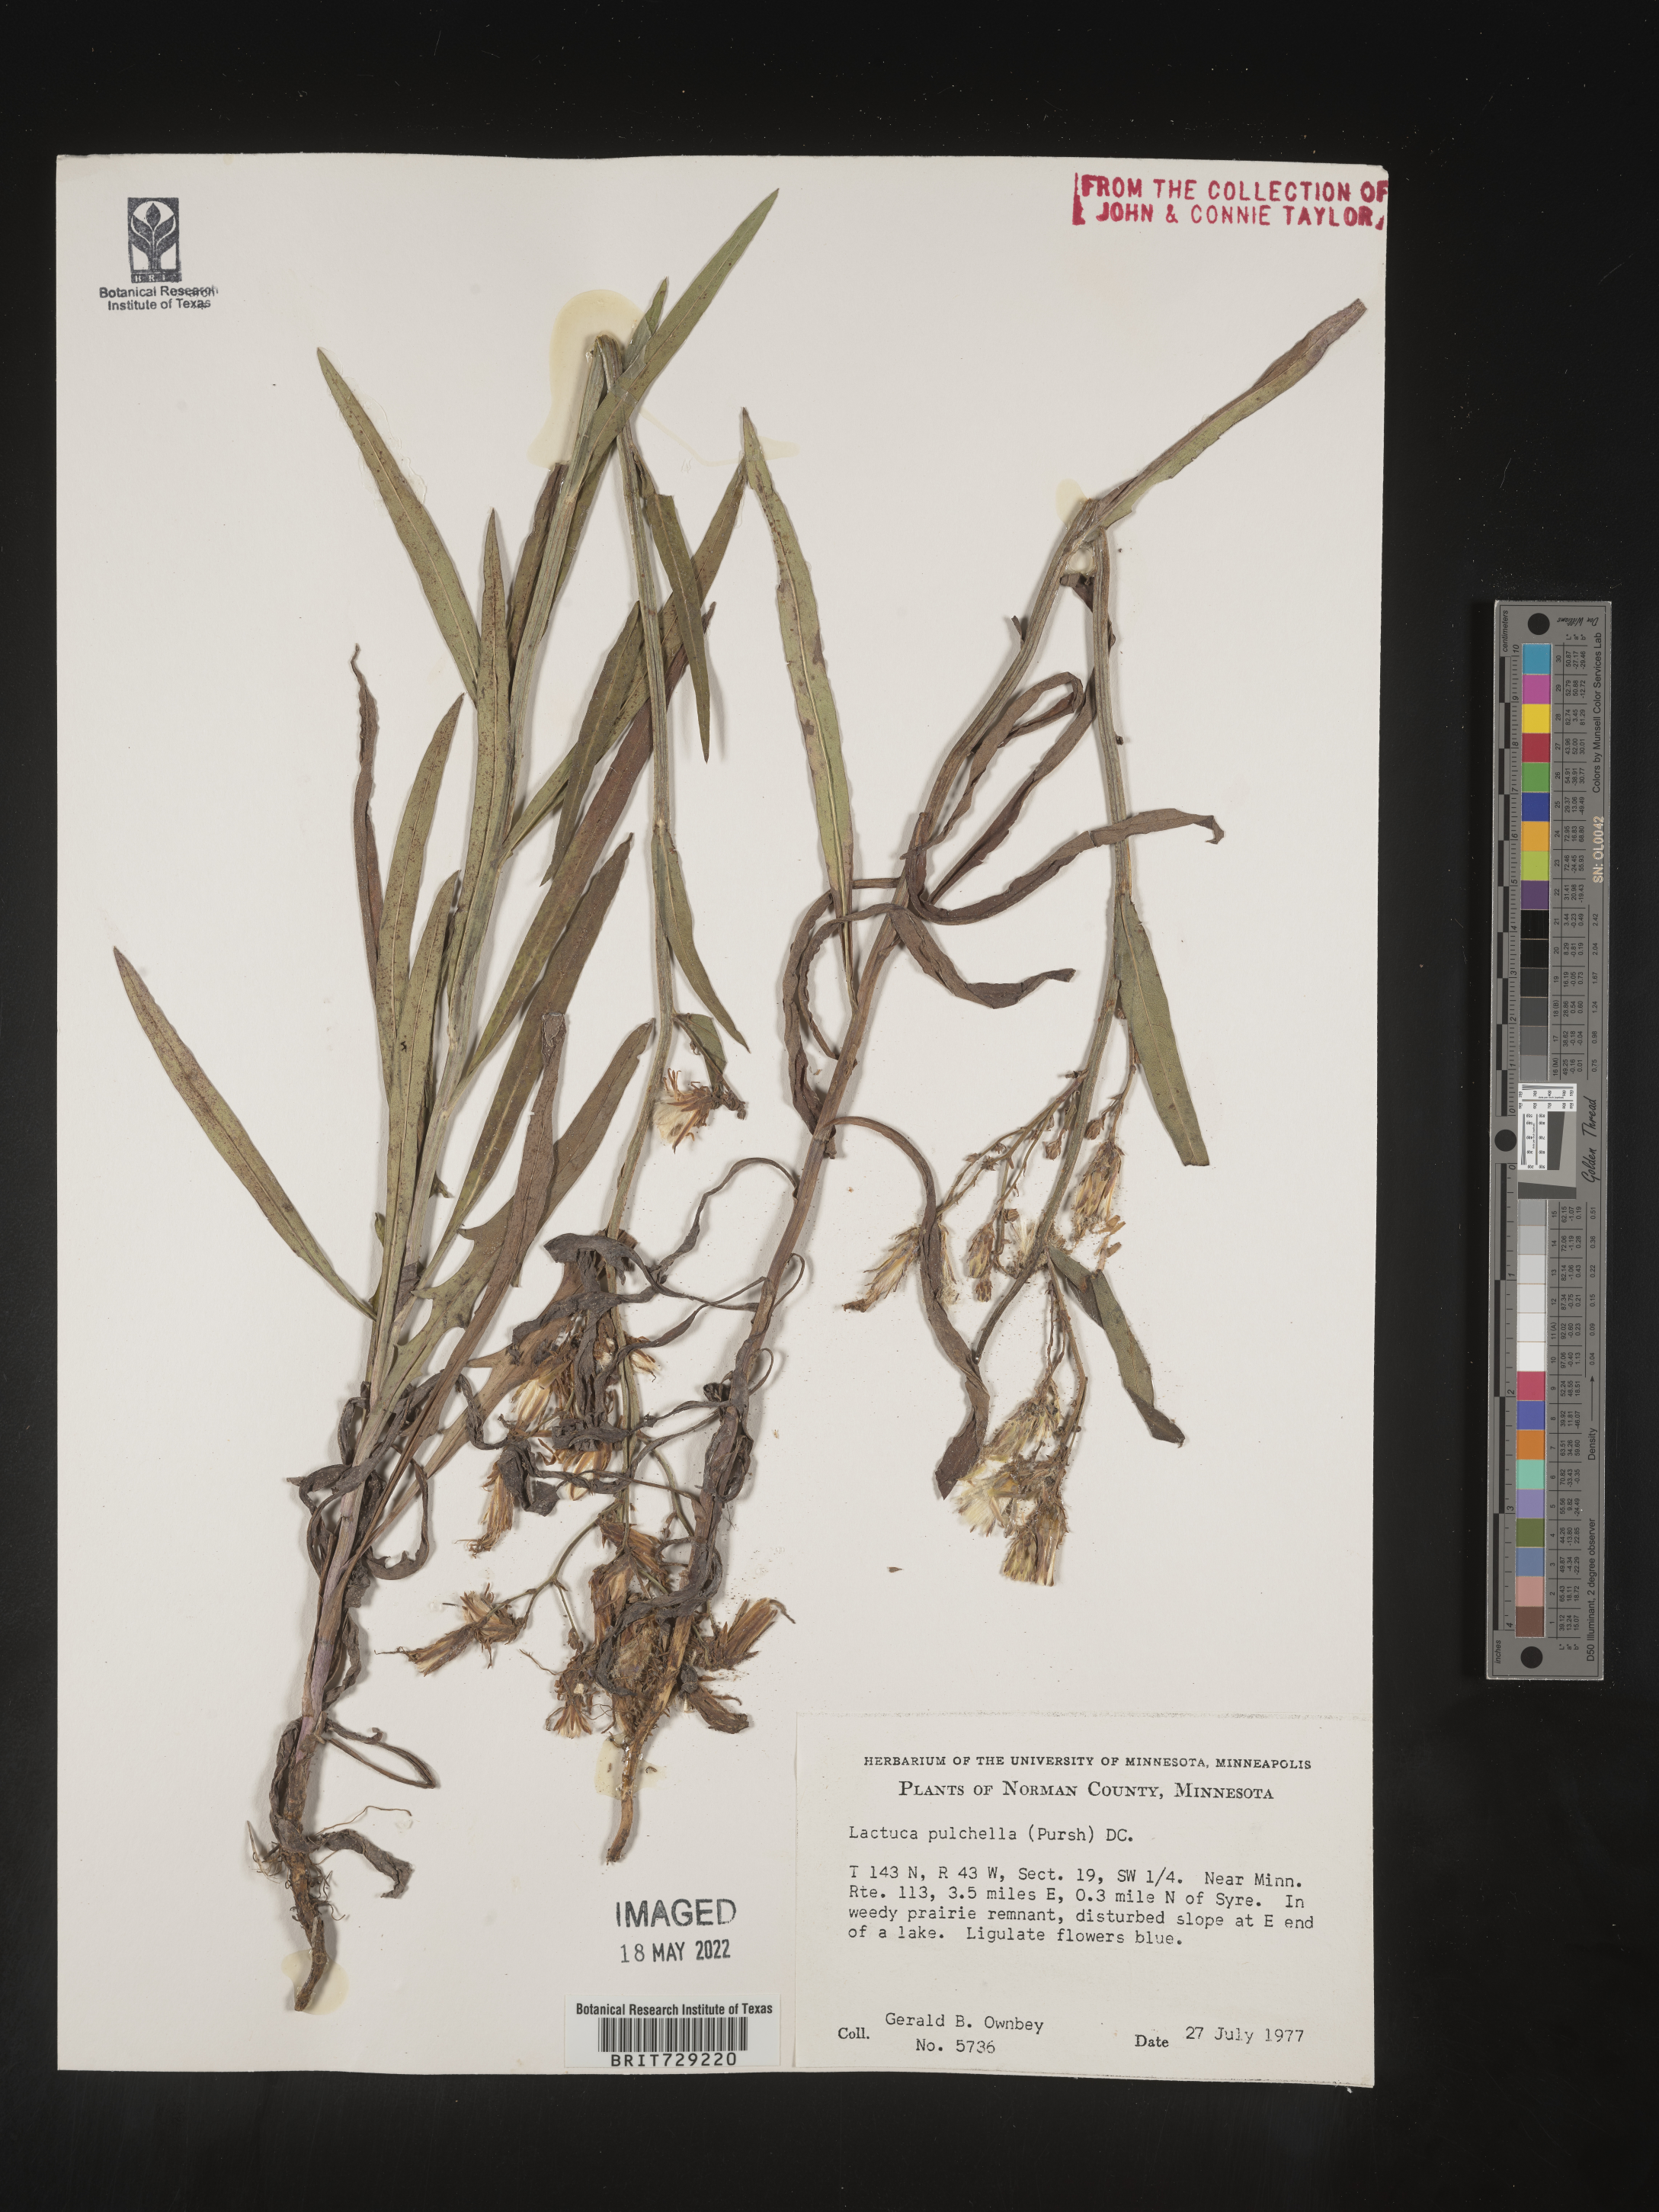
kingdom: Plantae
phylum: Tracheophyta
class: Magnoliopsida
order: Asterales
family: Asteraceae
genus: Lactuca
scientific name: Lactuca
